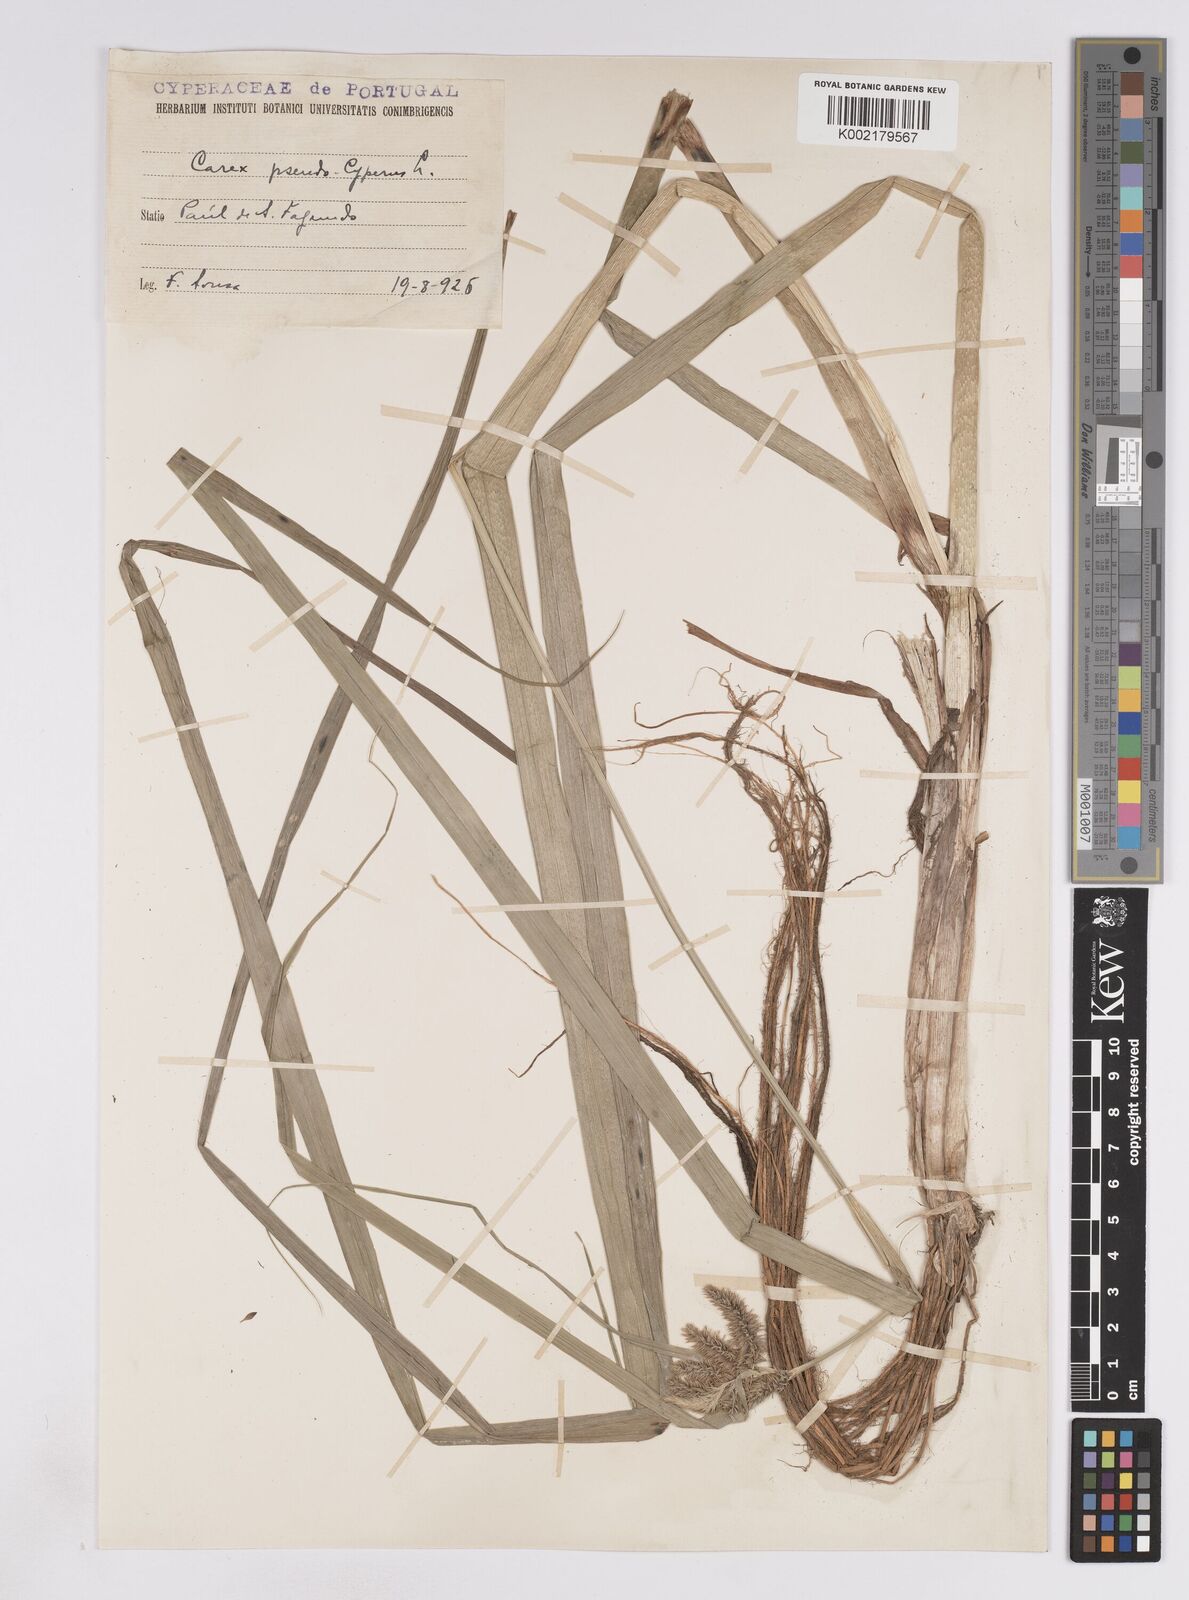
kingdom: Plantae
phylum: Tracheophyta
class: Liliopsida
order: Poales
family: Cyperaceae
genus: Carex
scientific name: Carex pseudocyperus
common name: Cyperus sedge
